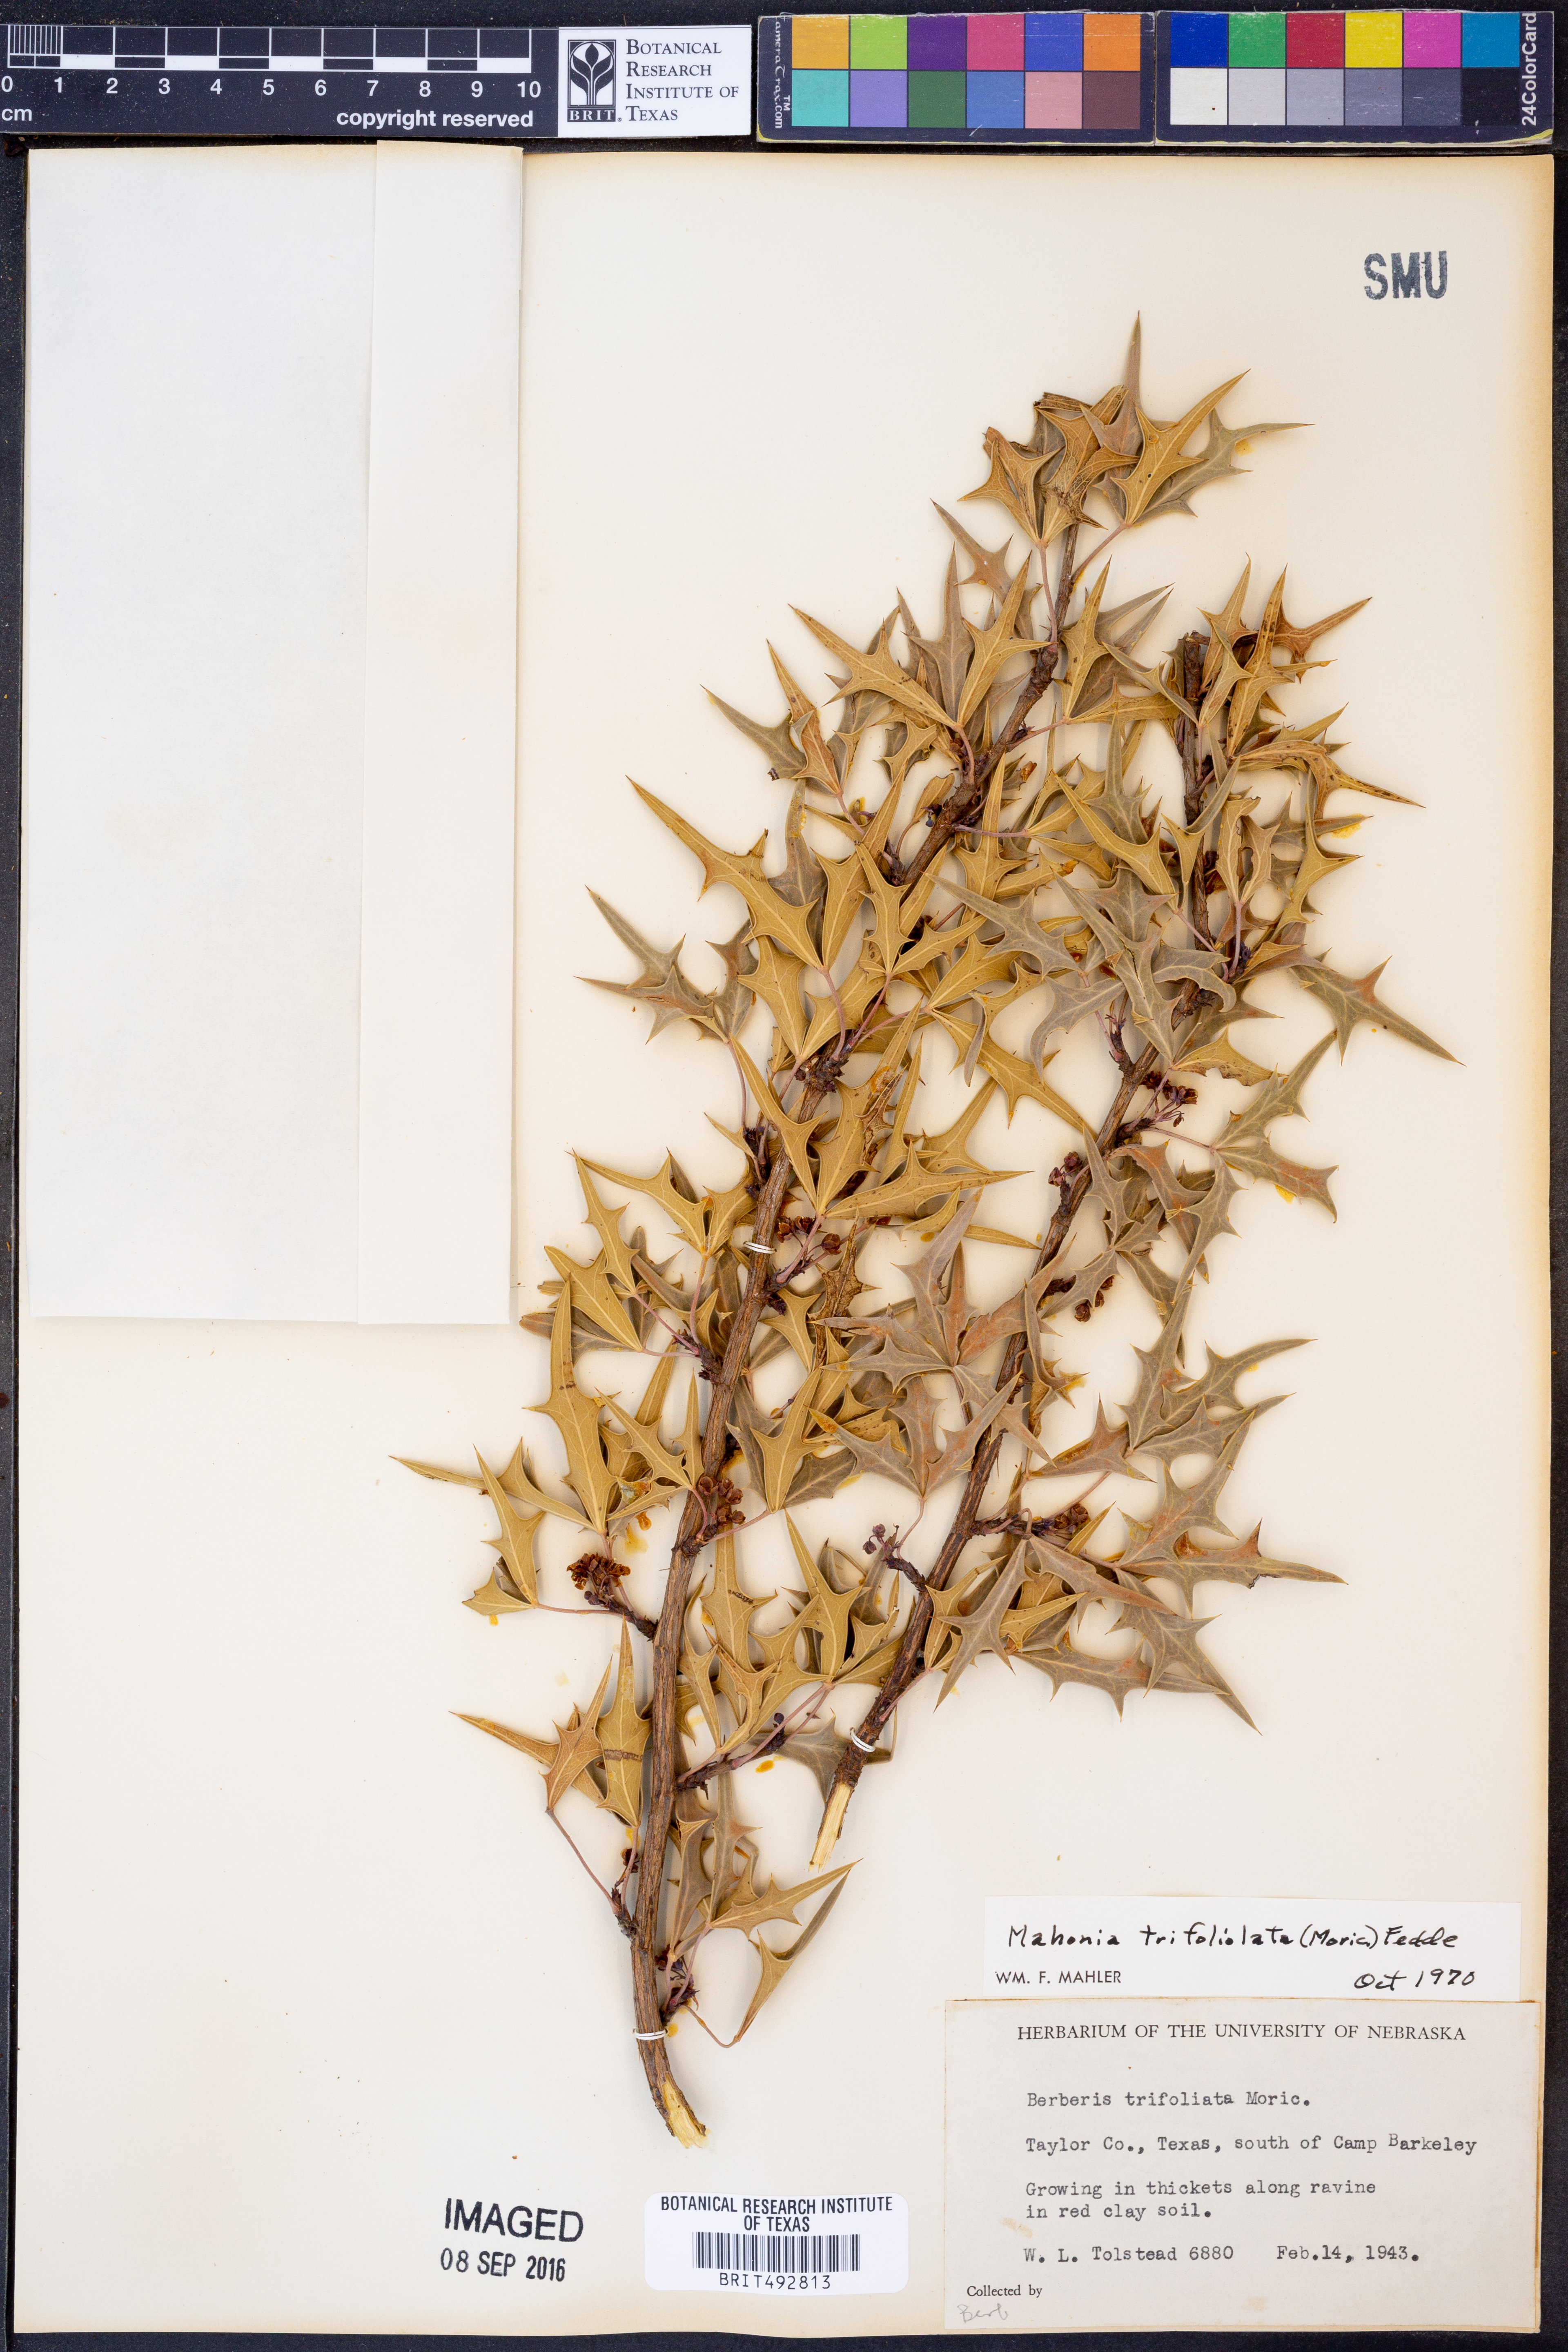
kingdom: Plantae
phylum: Tracheophyta
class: Magnoliopsida
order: Ranunculales
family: Berberidaceae
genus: Alloberberis
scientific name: Alloberberis trifoliolata
